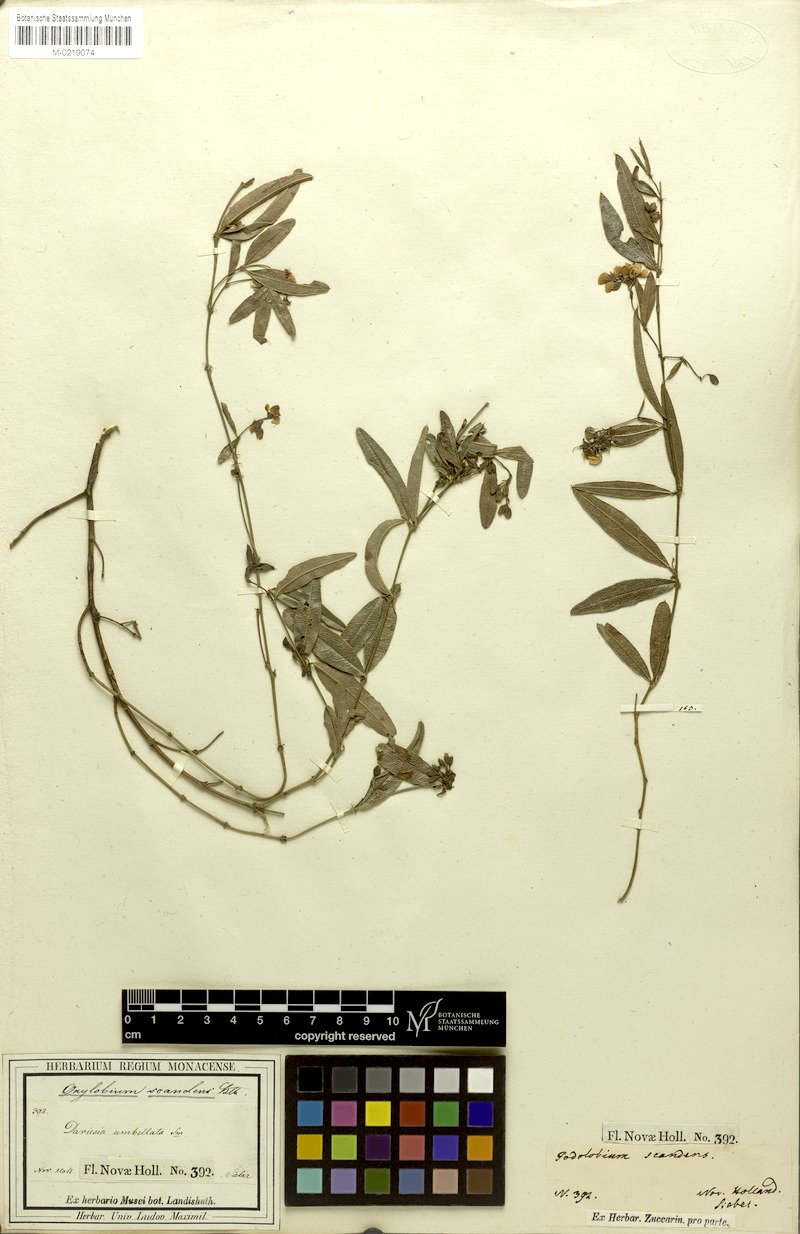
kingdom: Plantae
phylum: Tracheophyta
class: Magnoliopsida
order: Fabales
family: Fabaceae
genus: Podolobium
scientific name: Podolobium scandens
